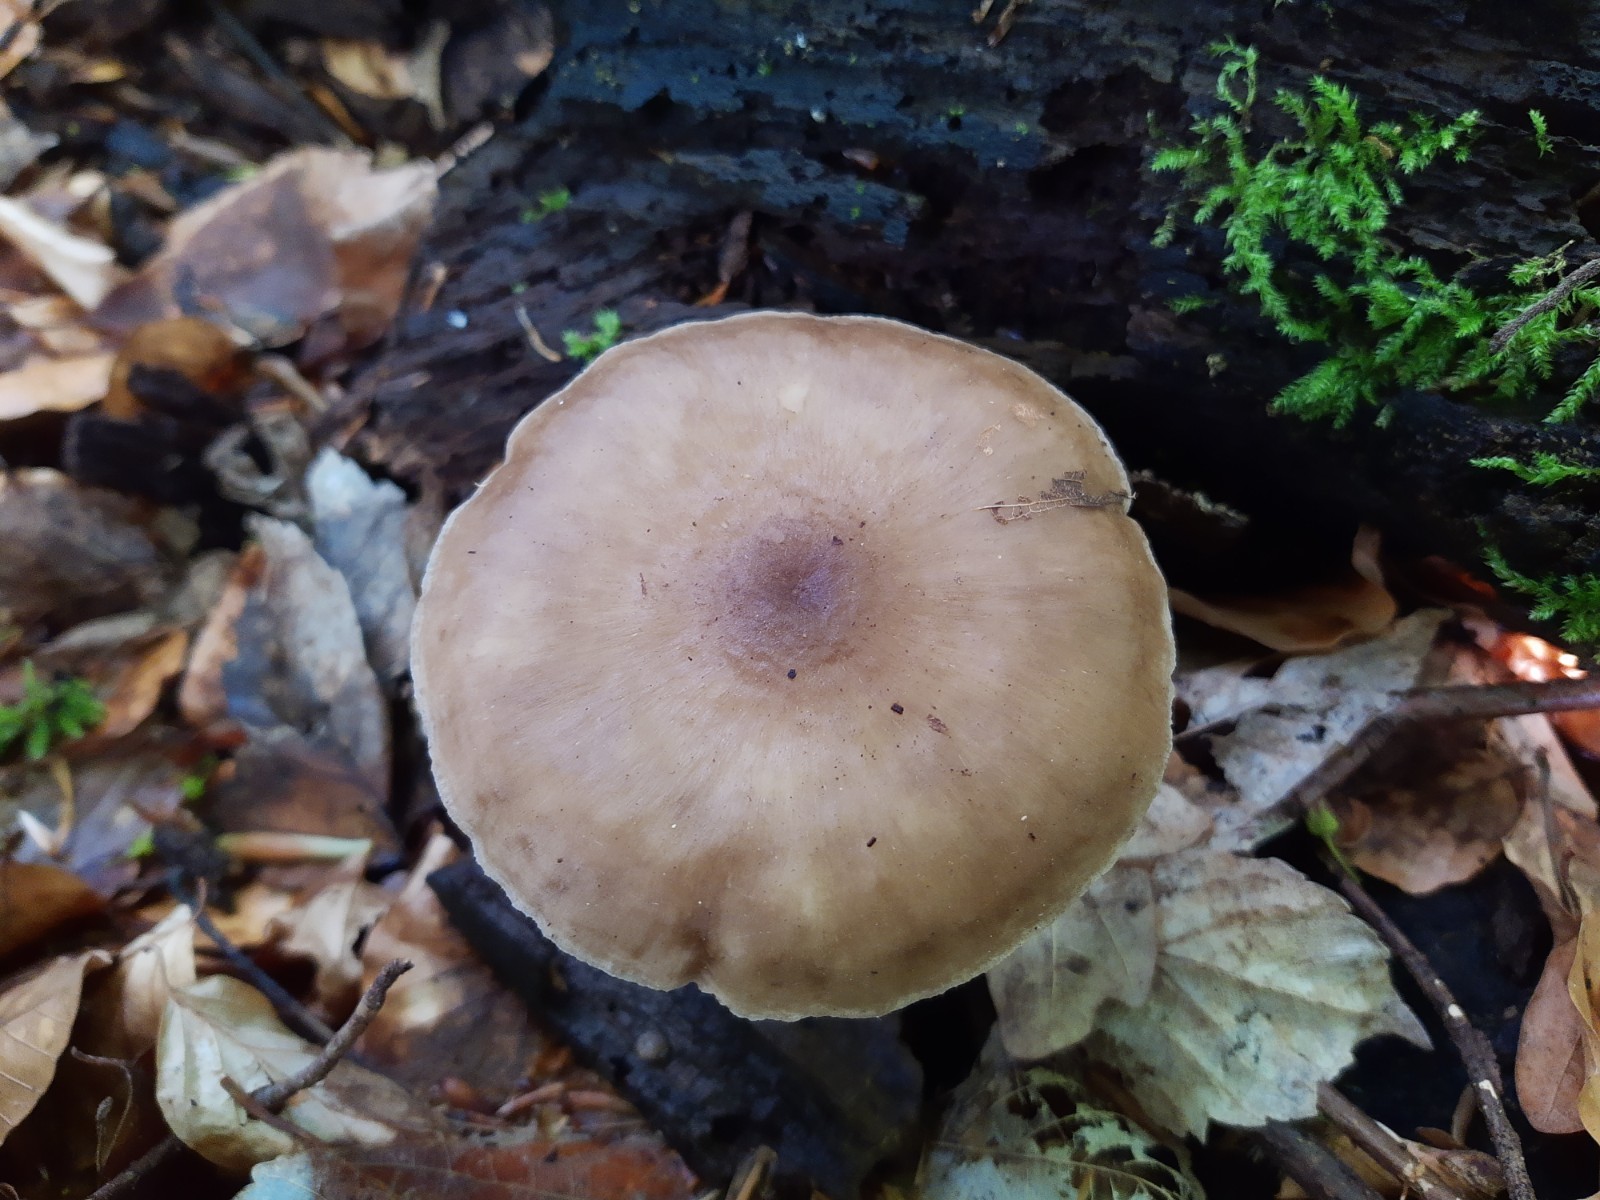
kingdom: Fungi
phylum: Basidiomycota
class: Agaricomycetes
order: Agaricales
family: Pluteaceae
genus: Pluteus
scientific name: Pluteus cervinus
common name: sodfarvet skærmhat
